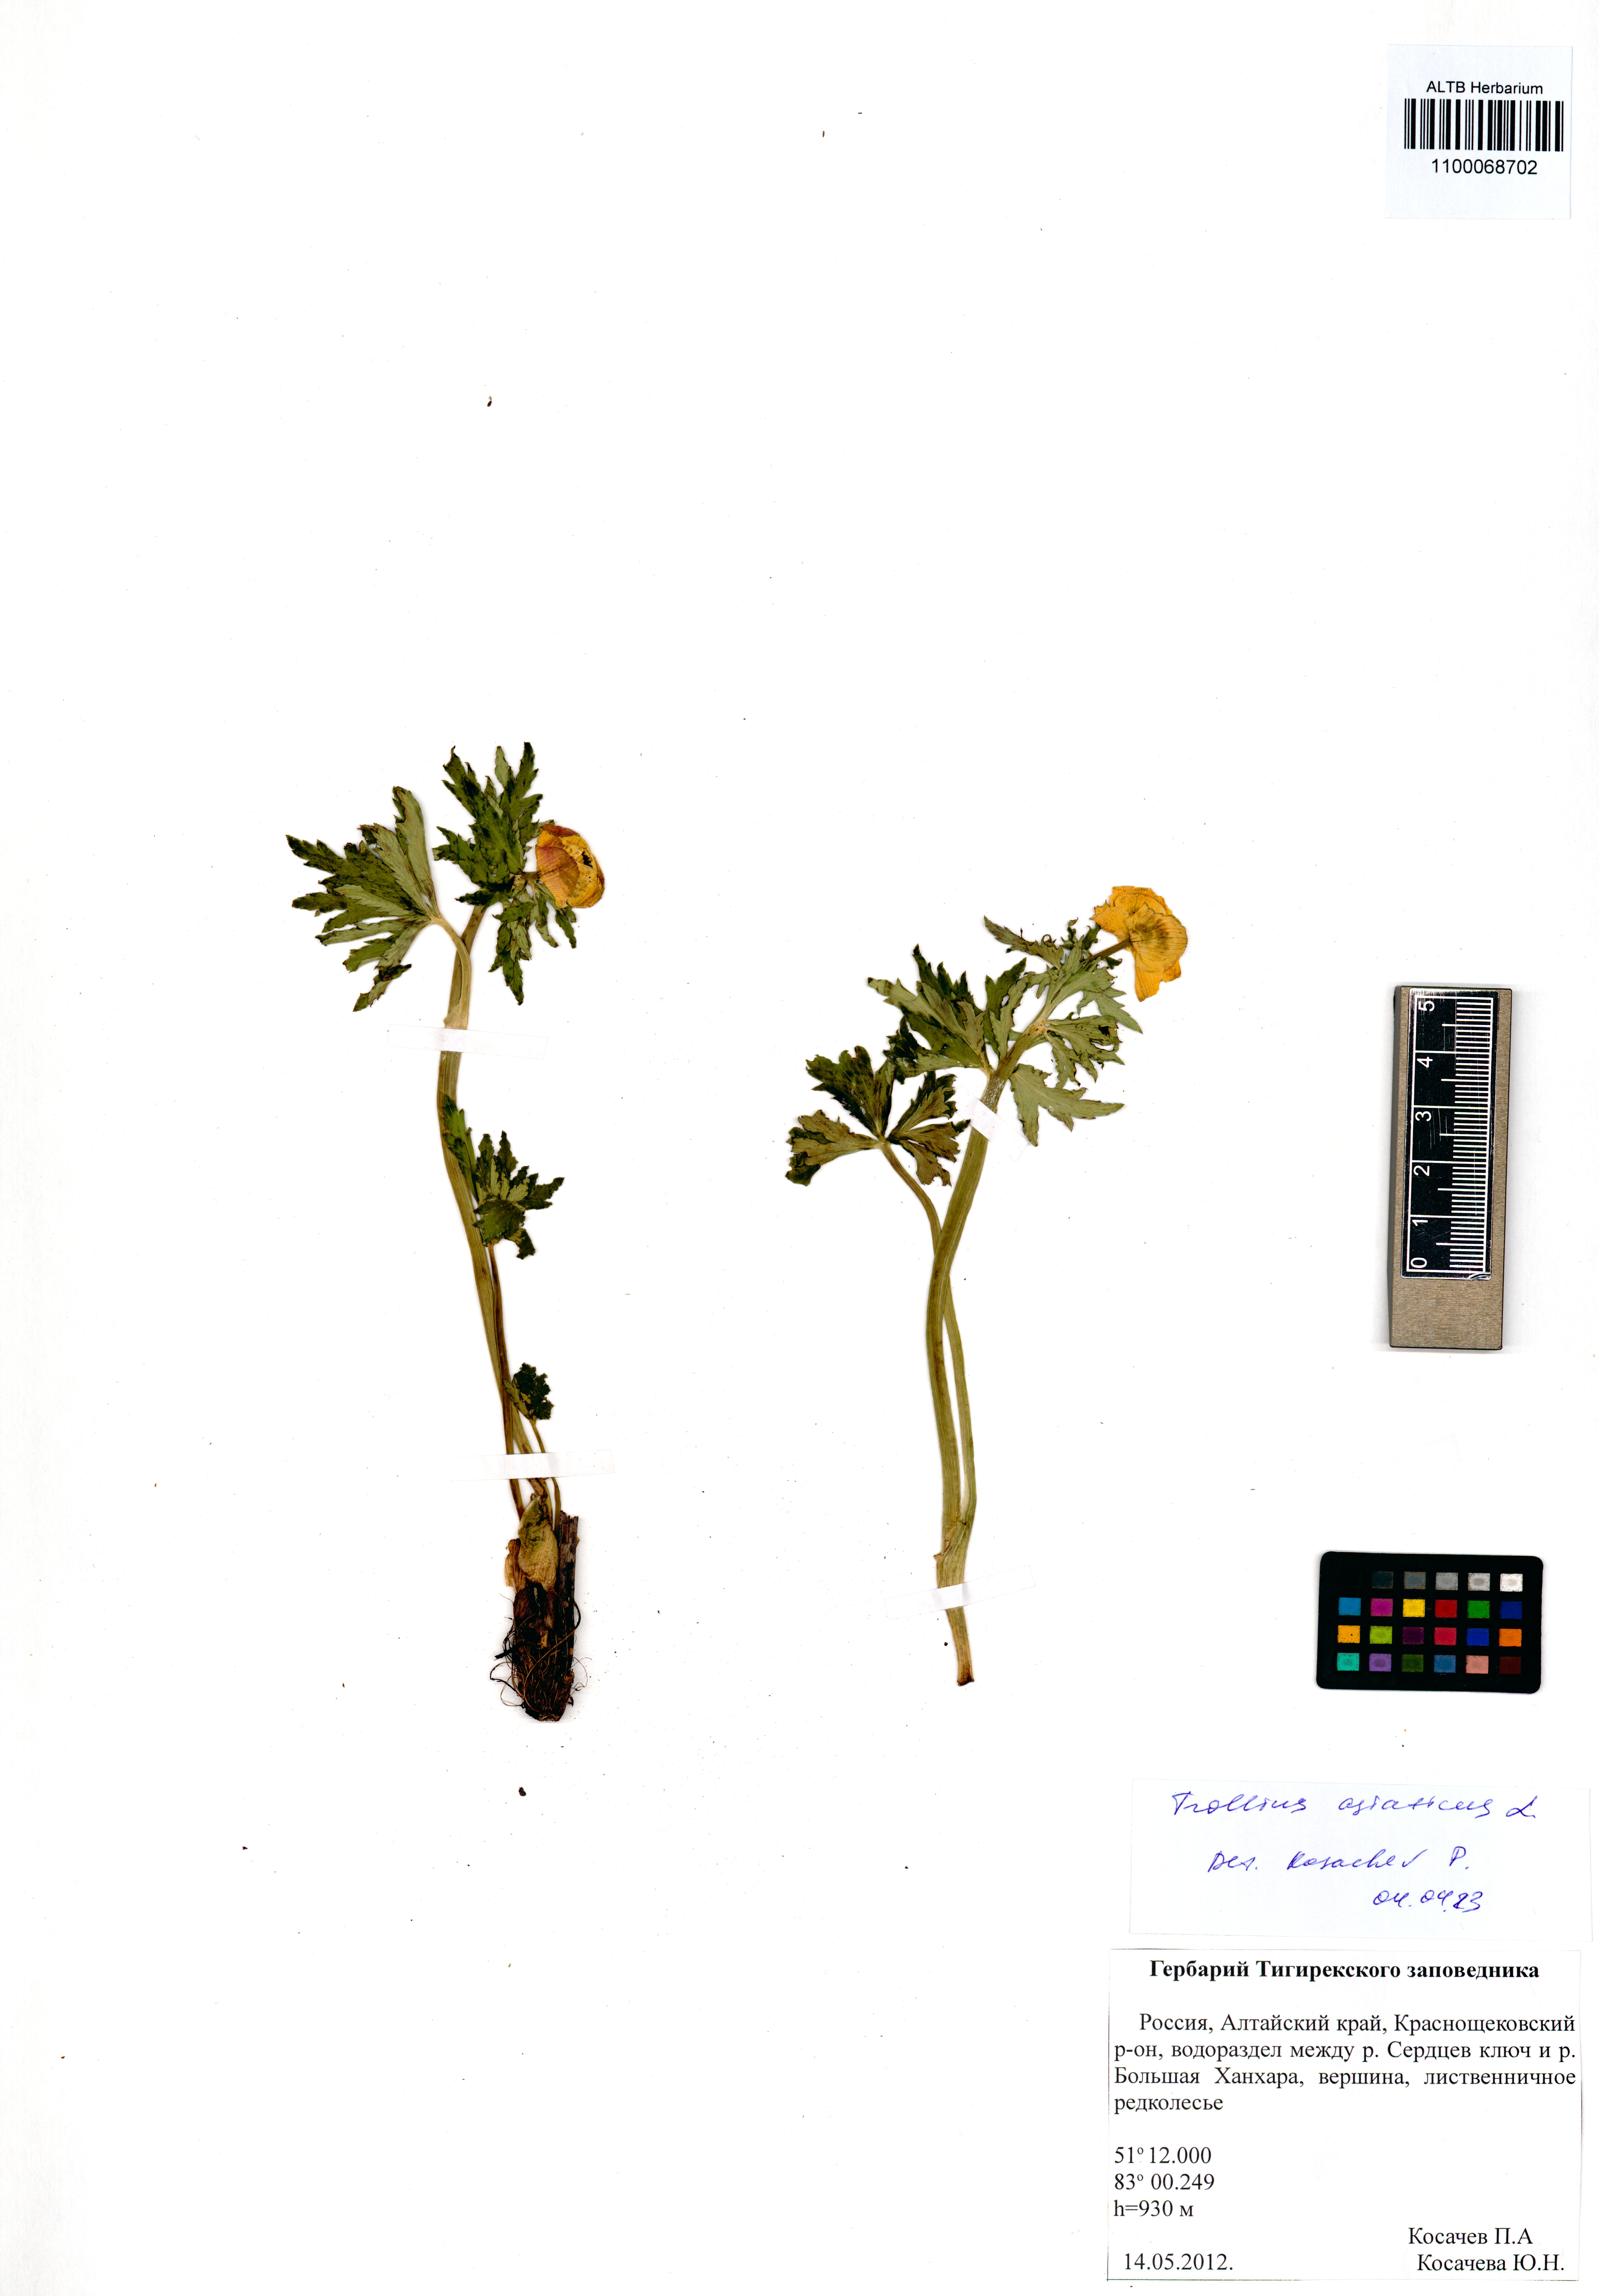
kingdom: Plantae
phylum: Tracheophyta
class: Magnoliopsida
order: Ranunculales
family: Ranunculaceae
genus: Trollius
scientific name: Trollius asiaticus
